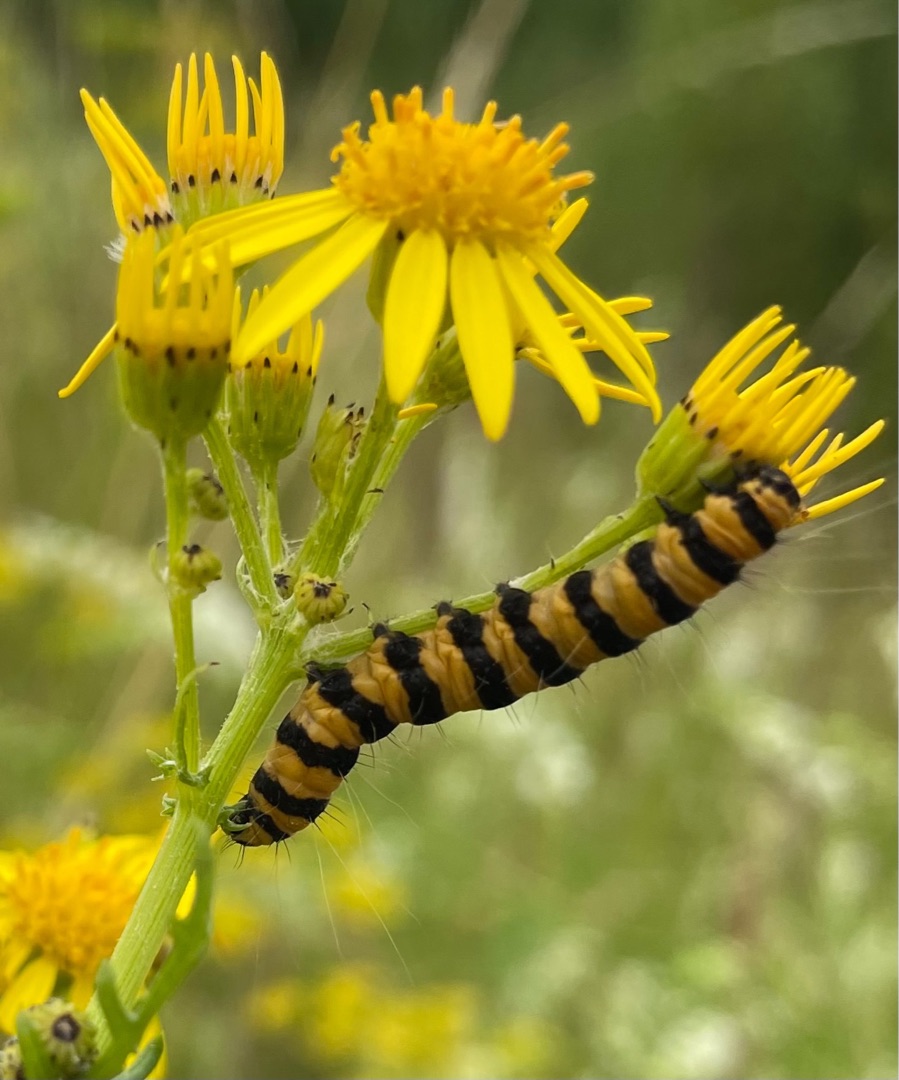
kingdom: Animalia
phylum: Arthropoda
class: Insecta
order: Lepidoptera
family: Erebidae
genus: Tyria
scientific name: Tyria jacobaeae
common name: Blodplet
